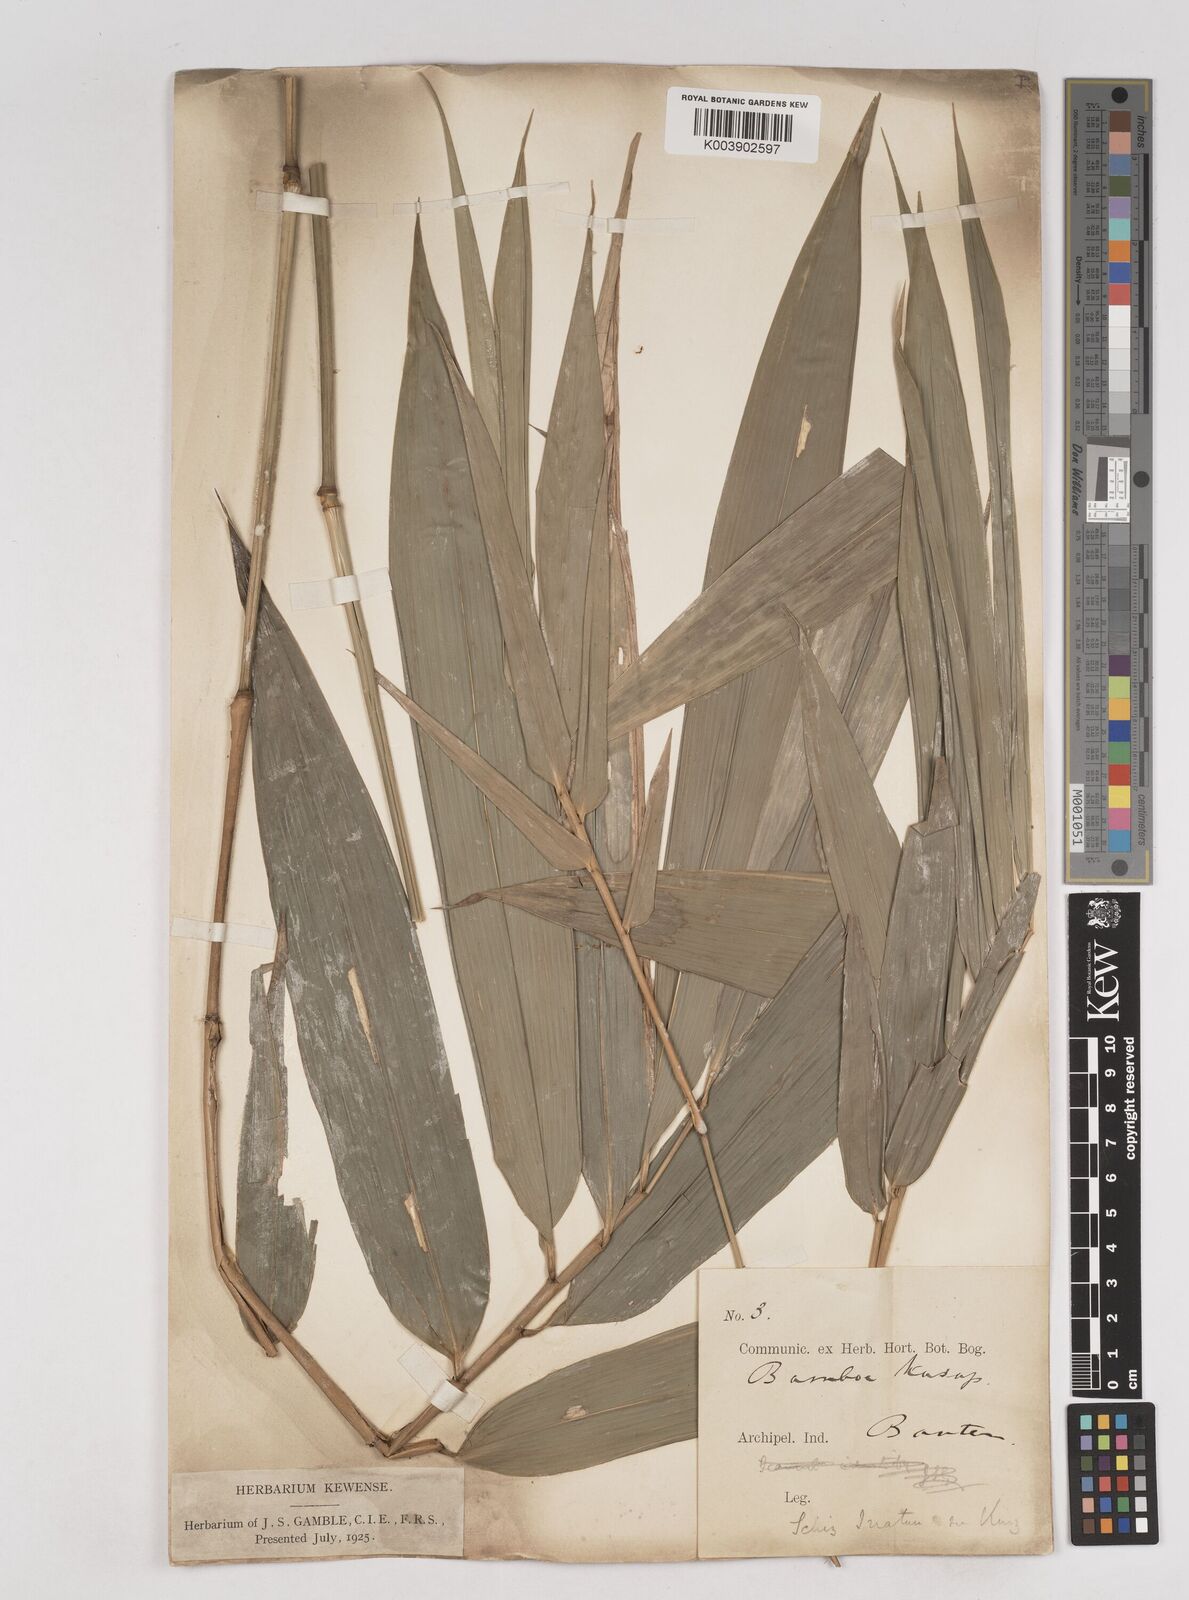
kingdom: Plantae
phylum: Tracheophyta
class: Liliopsida
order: Poales
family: Poaceae
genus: Schizostachyum
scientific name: Schizostachyum
